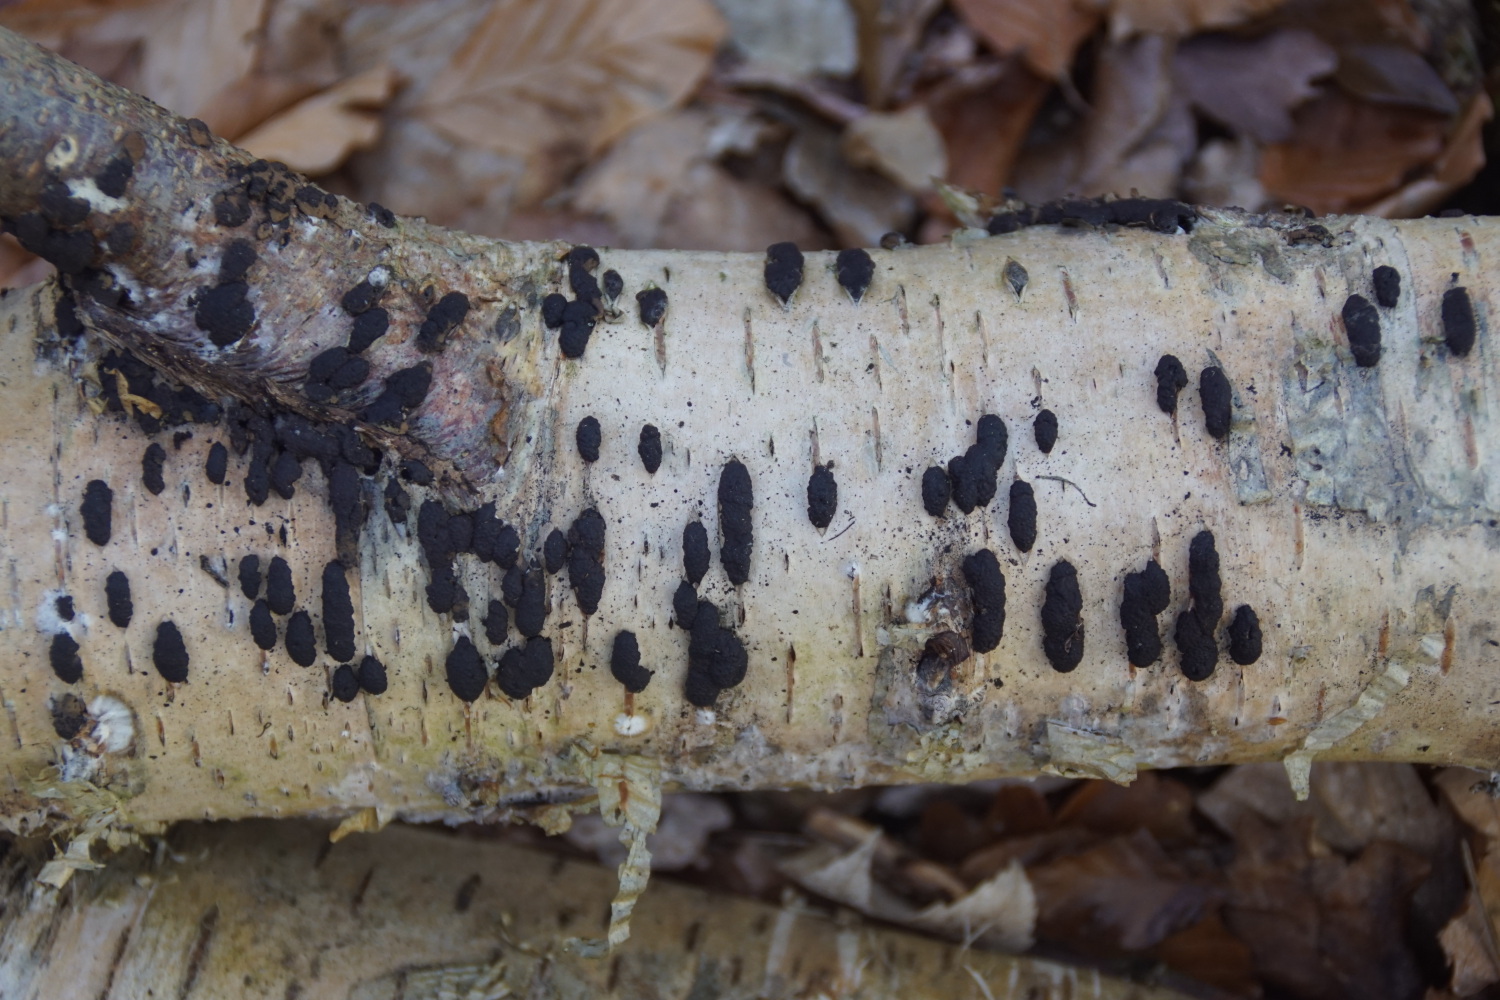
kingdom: Fungi
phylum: Ascomycota
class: Sordariomycetes
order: Xylariales
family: Hypoxylaceae
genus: Jackrogersella
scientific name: Jackrogersella multiformis
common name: foranderlig kulbær
